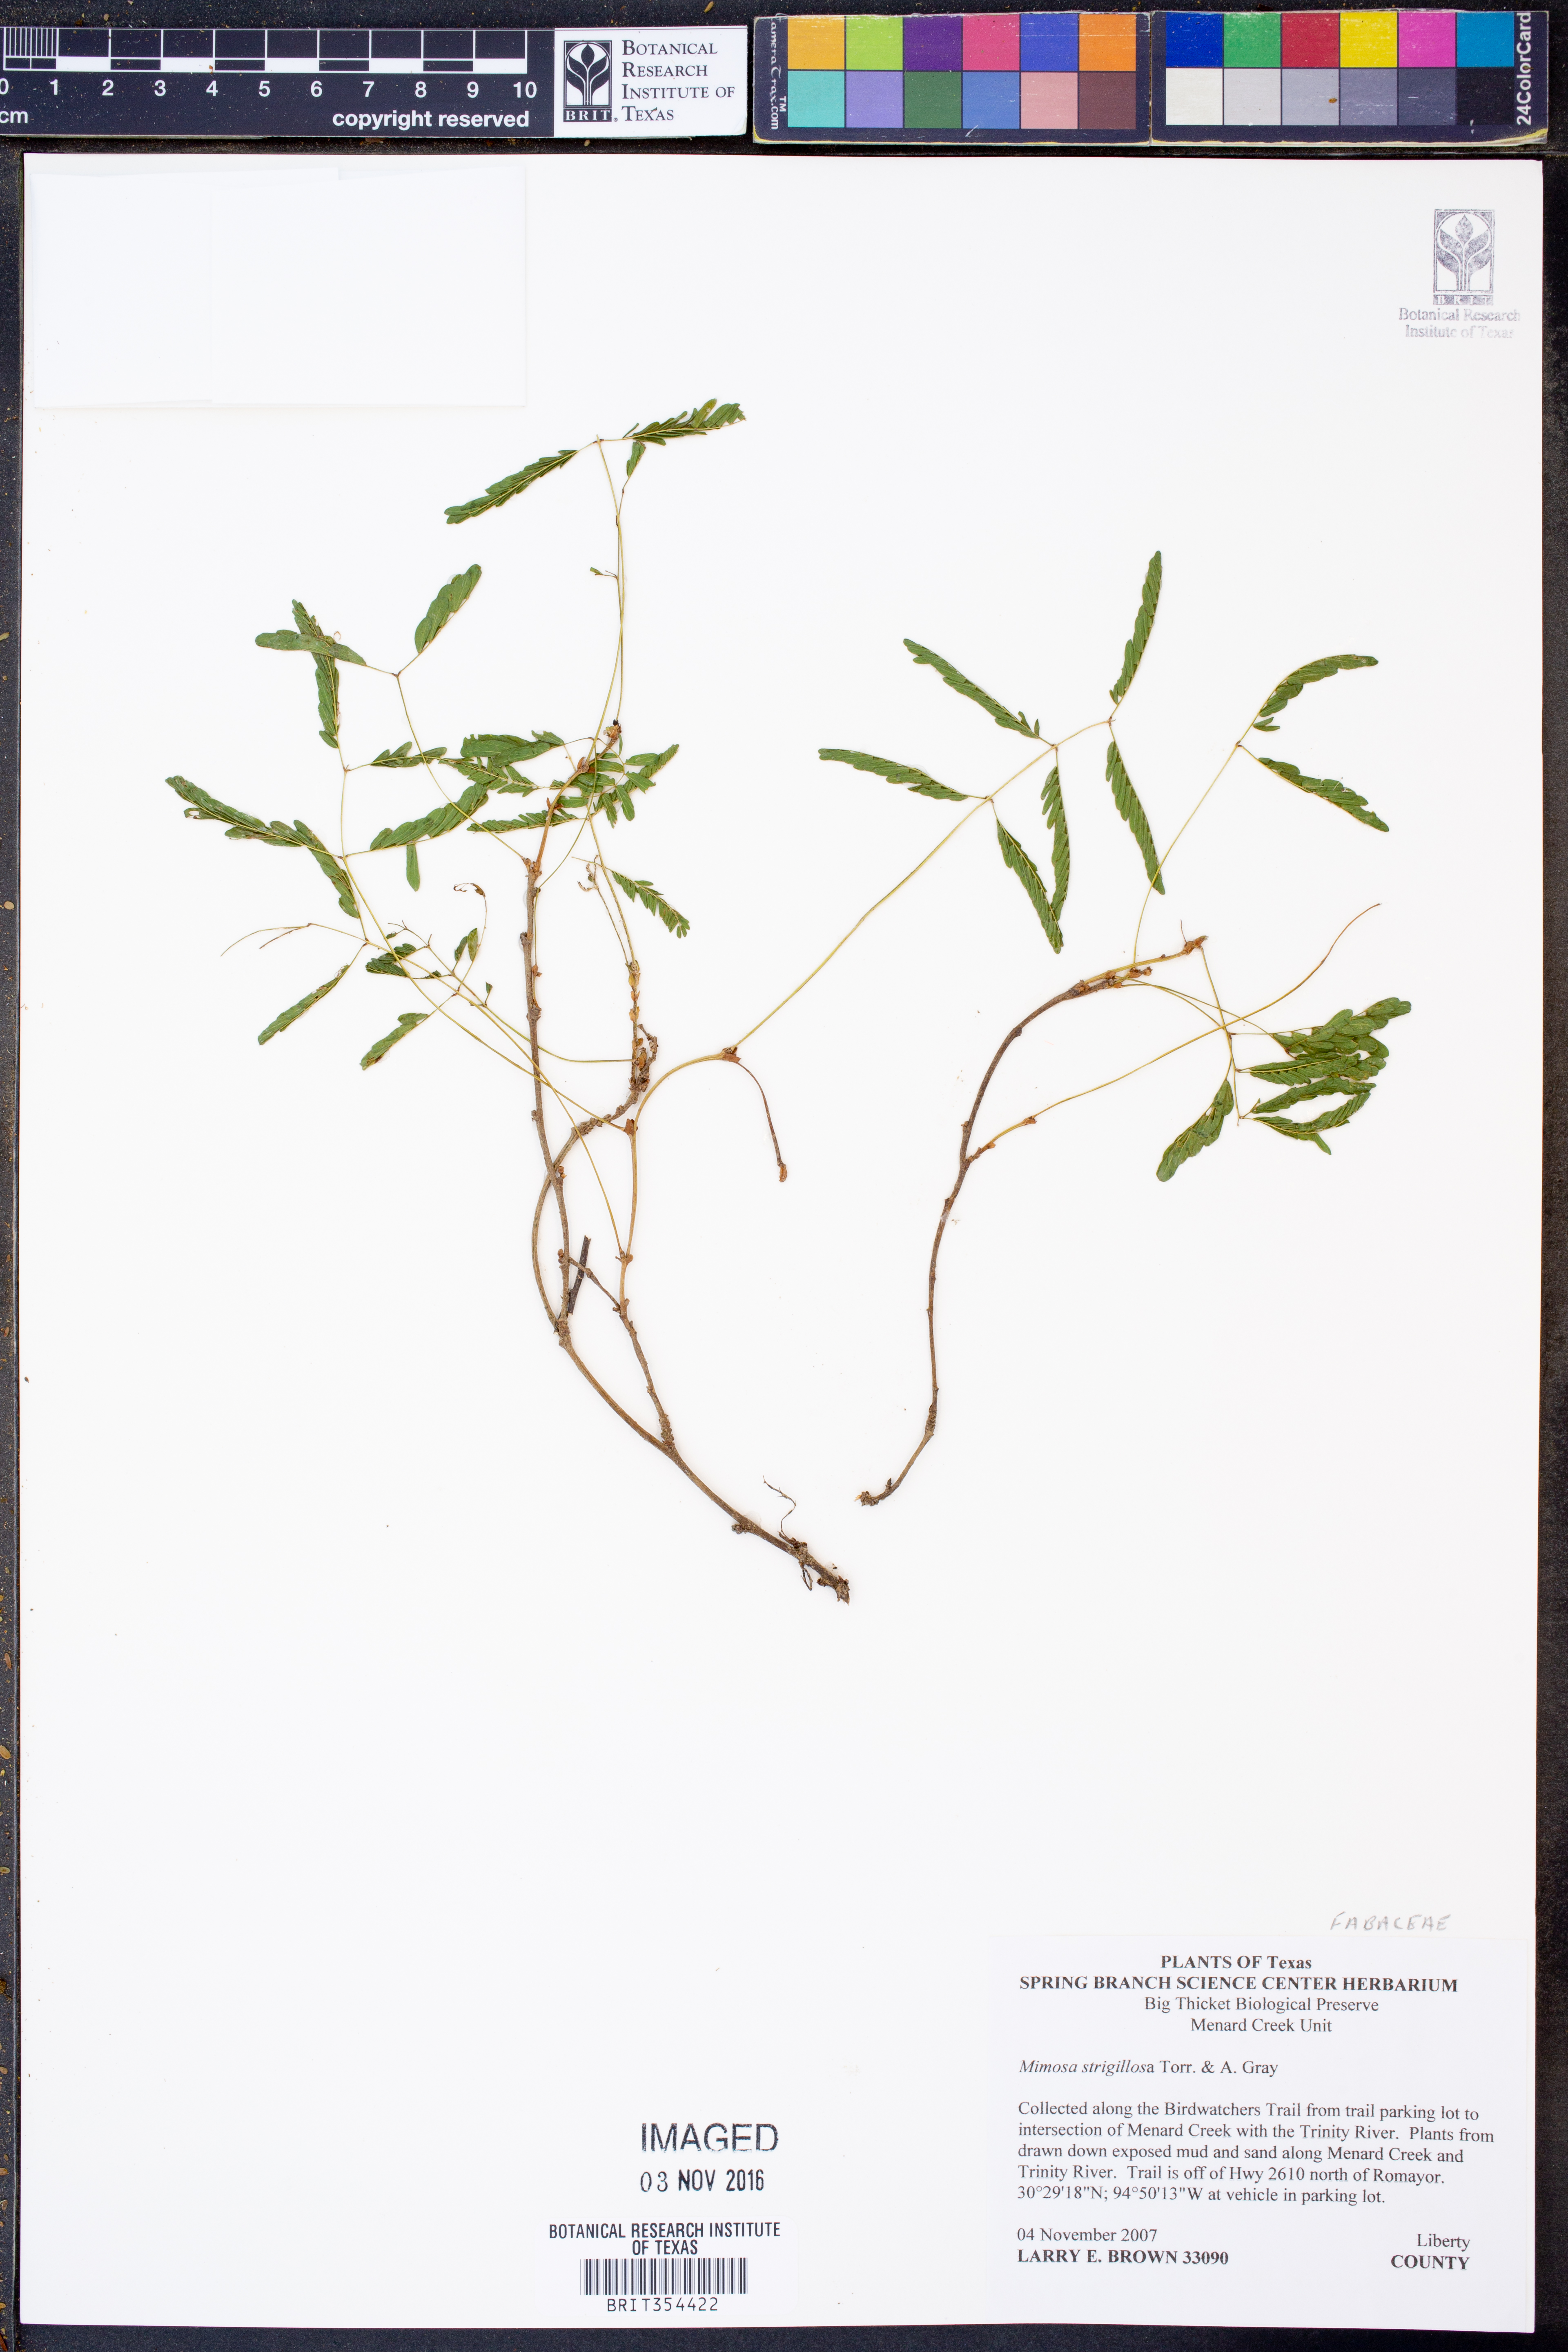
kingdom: Plantae
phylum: Tracheophyta
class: Magnoliopsida
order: Fabales
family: Fabaceae
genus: Mimosa
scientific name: Mimosa strigillosa
